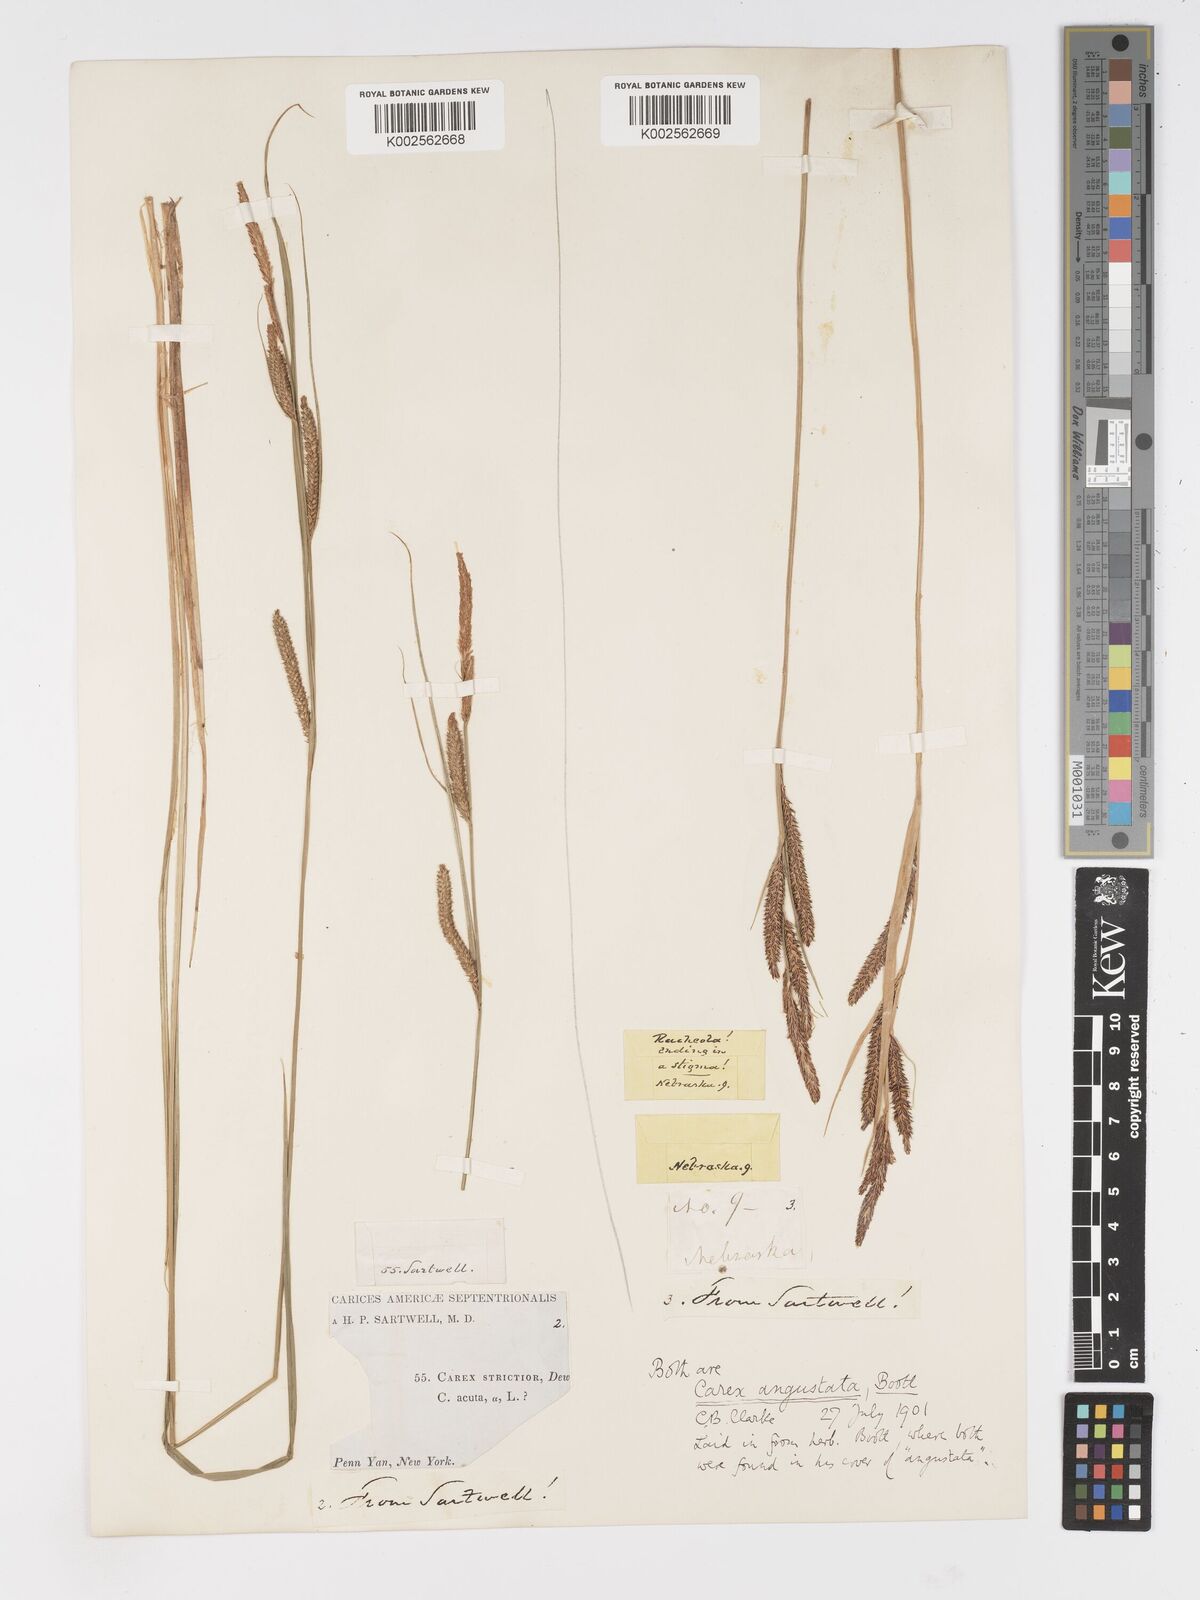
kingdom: Plantae
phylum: Tracheophyta
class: Liliopsida
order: Poales
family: Cyperaceae
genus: Carex
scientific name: Carex stricta
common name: Hummock sedge
